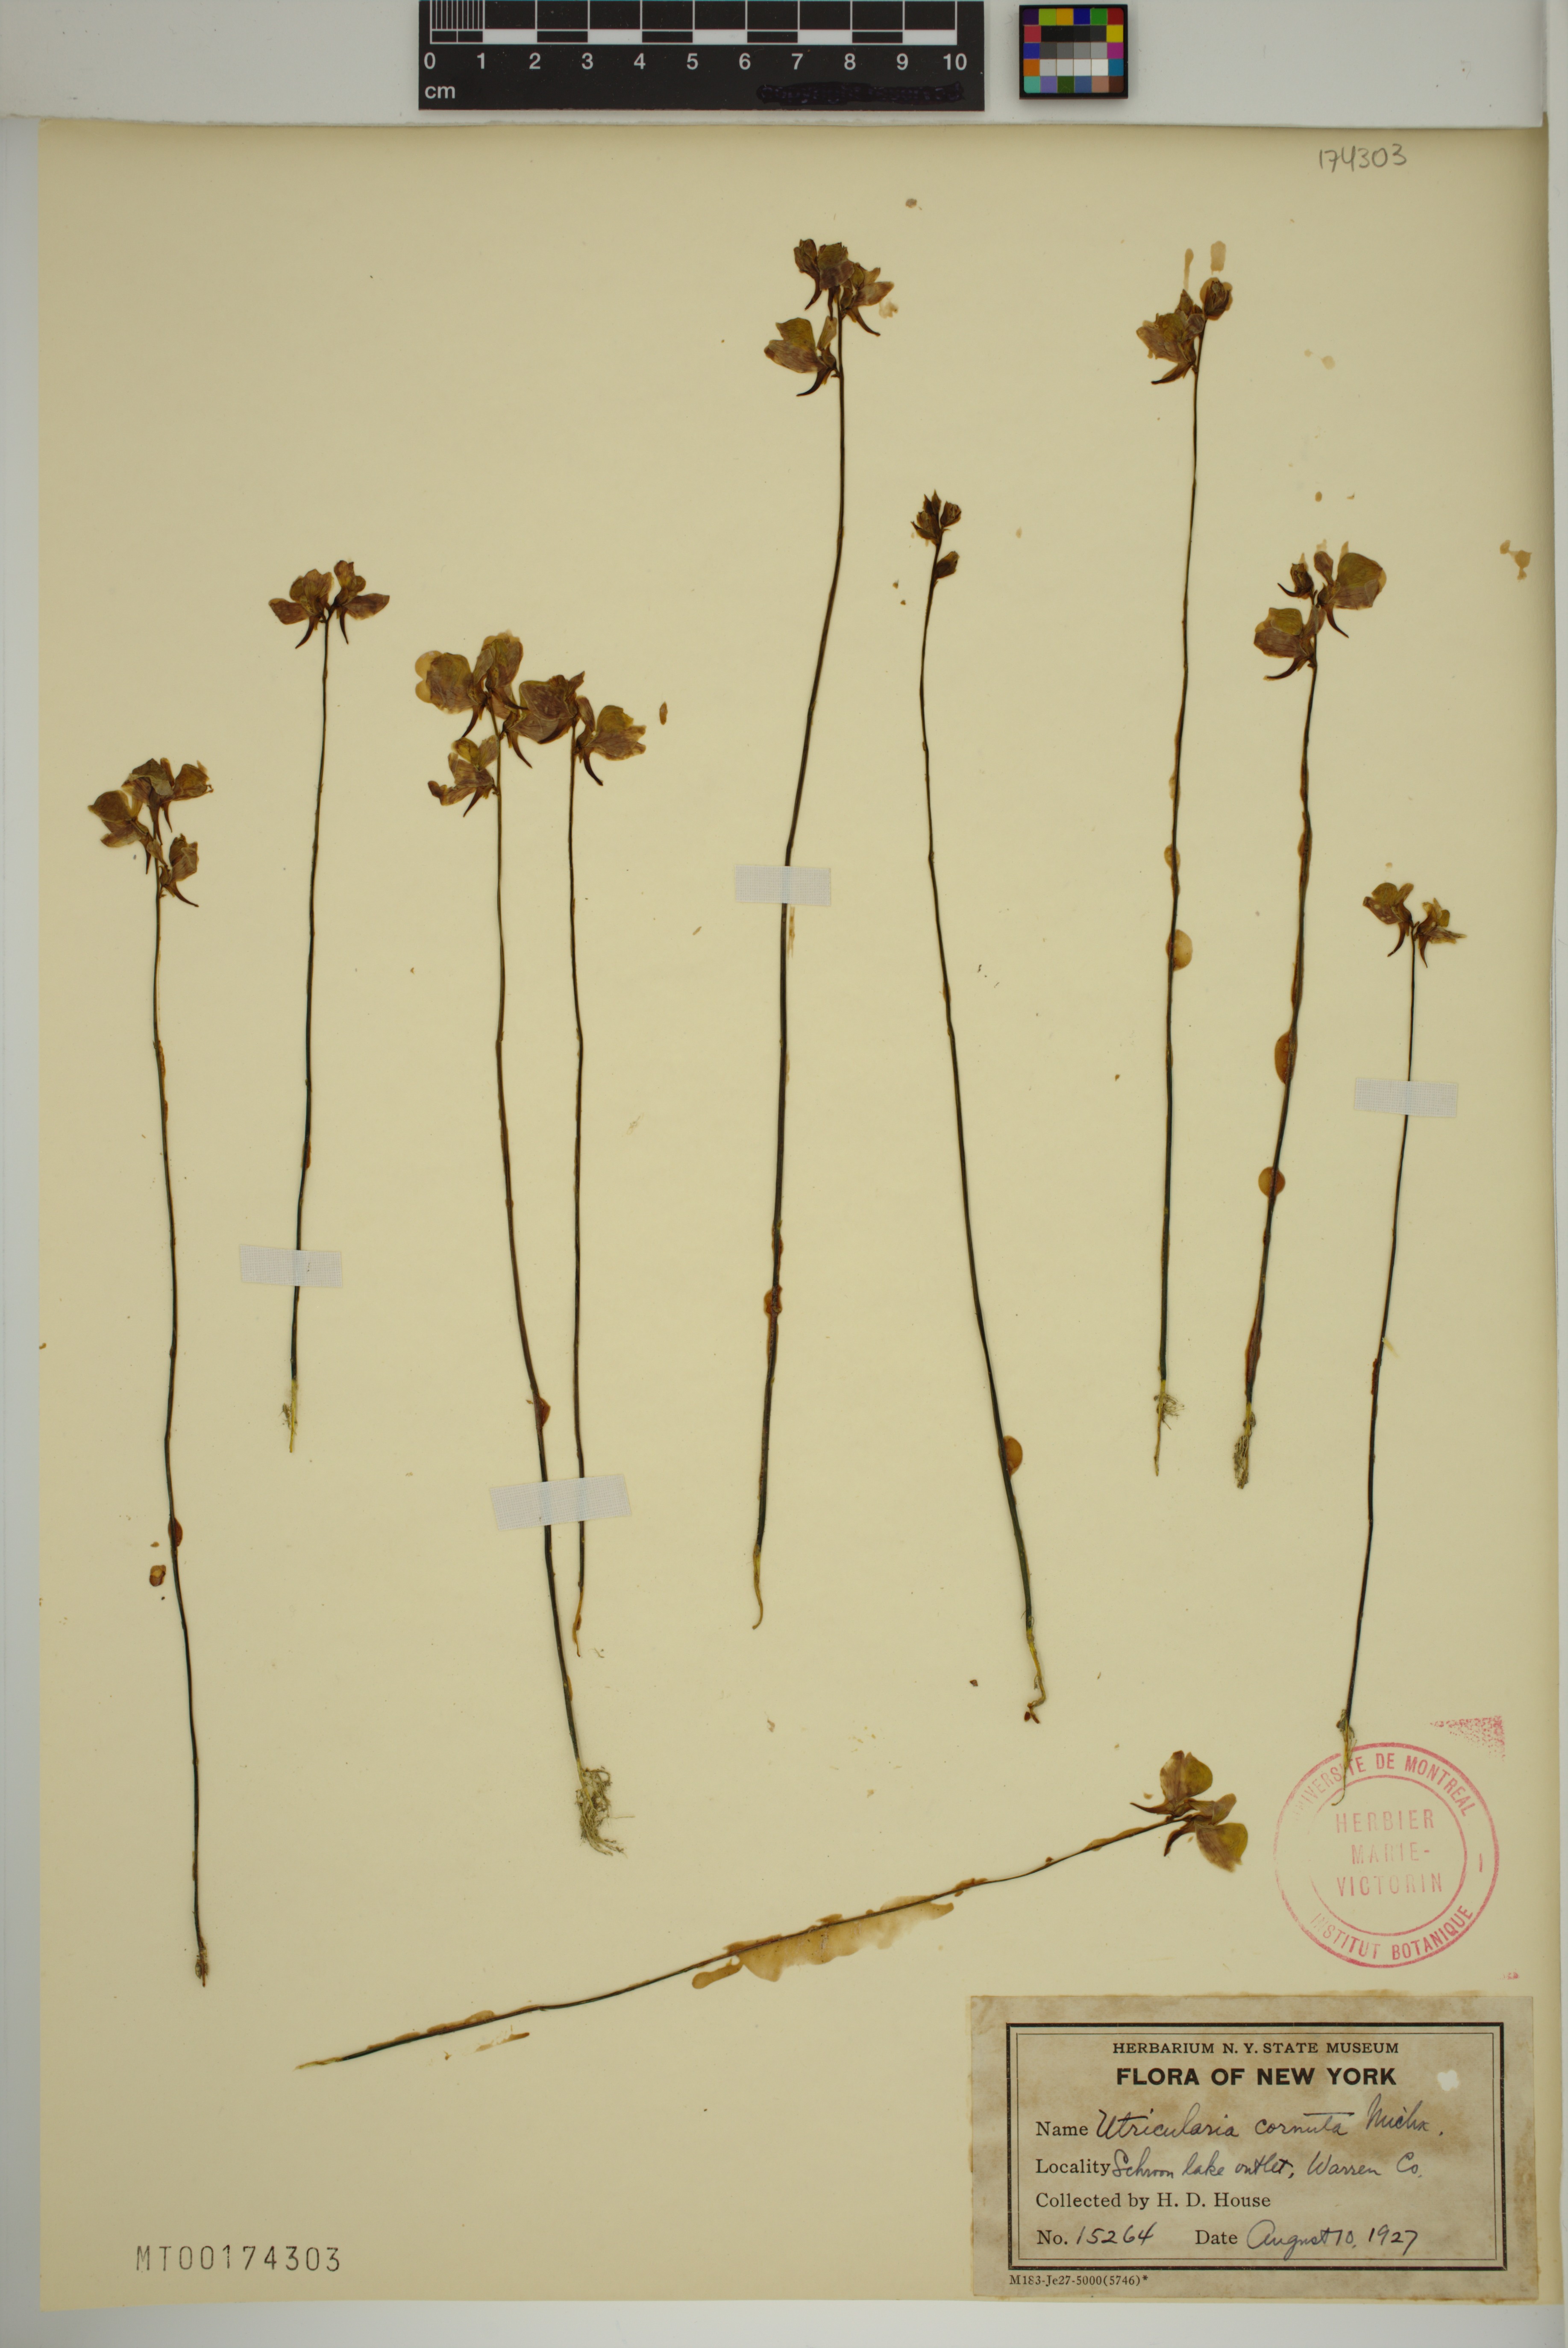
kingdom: Plantae
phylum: Tracheophyta
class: Magnoliopsida
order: Lamiales
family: Lentibulariaceae
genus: Utricularia
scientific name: Utricularia cornuta
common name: Horned bladderwort
